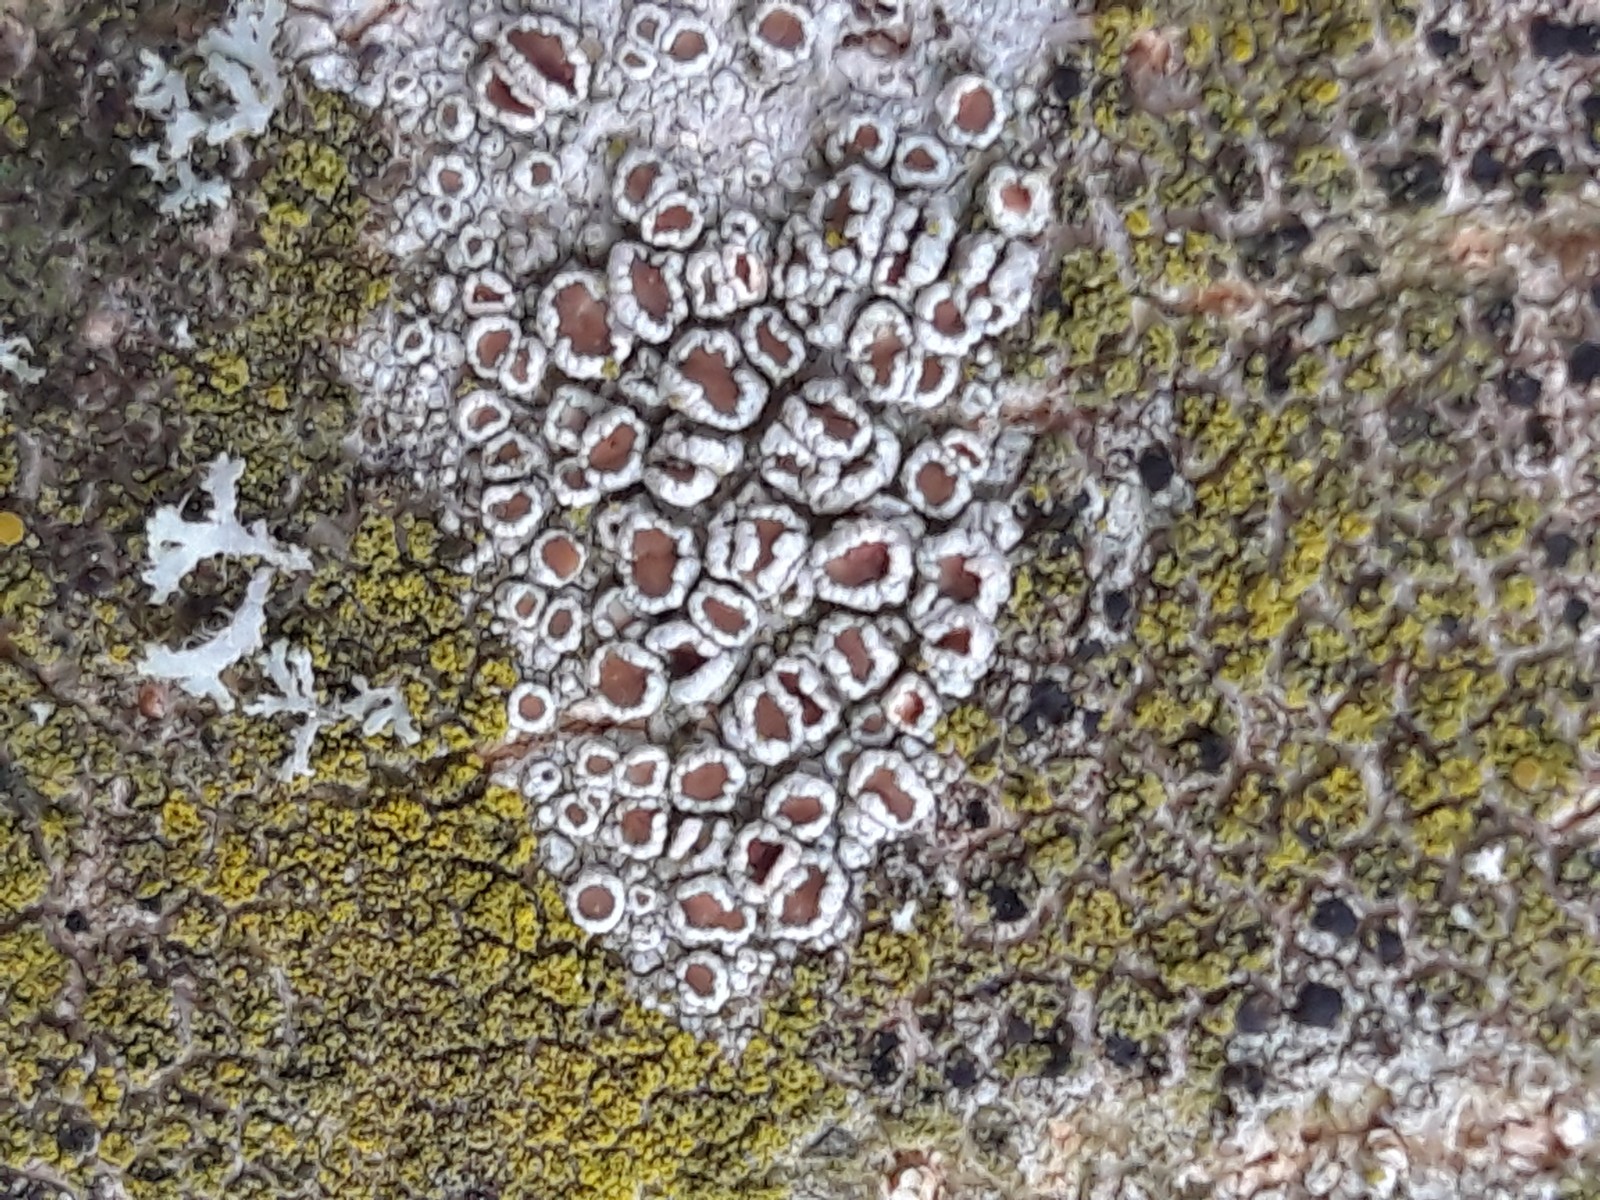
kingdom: Fungi
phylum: Ascomycota
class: Lecanoromycetes
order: Lecanorales
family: Lecanoraceae
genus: Lecanora
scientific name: Lecanora
